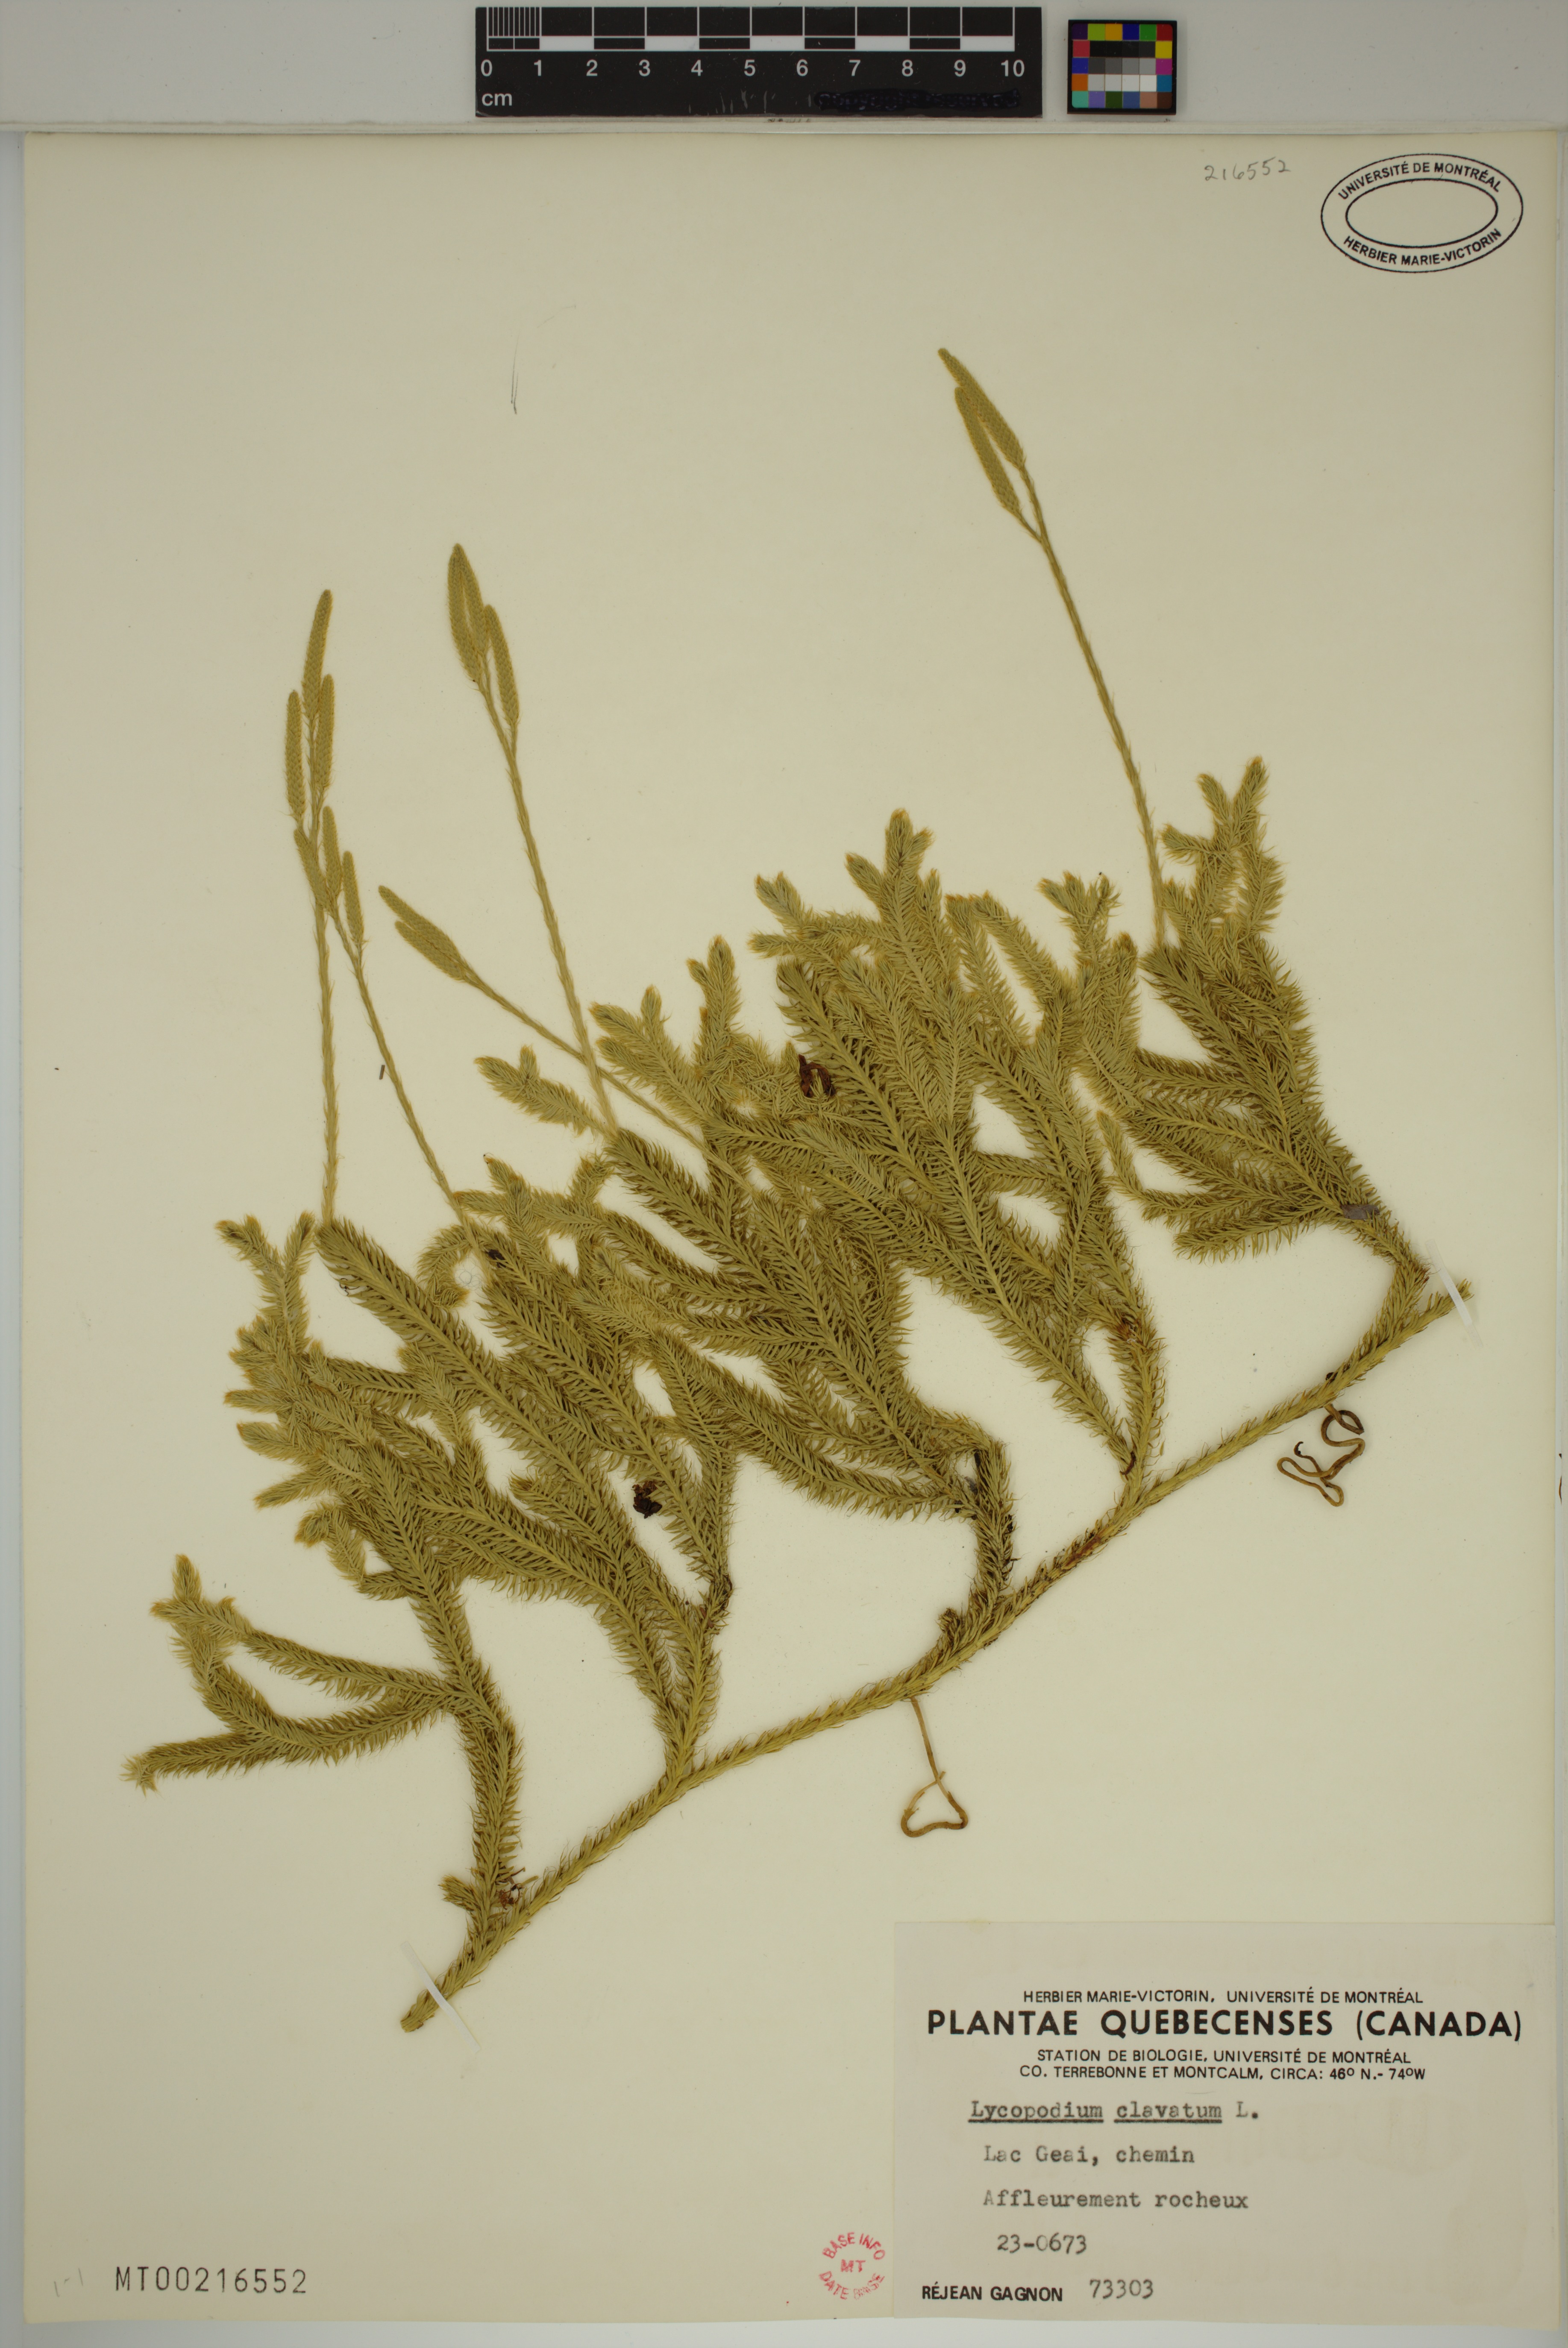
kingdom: Plantae
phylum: Tracheophyta
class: Lycopodiopsida
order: Lycopodiales
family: Lycopodiaceae
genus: Lycopodium
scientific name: Lycopodium clavatum
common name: Stag's-horn clubmoss
